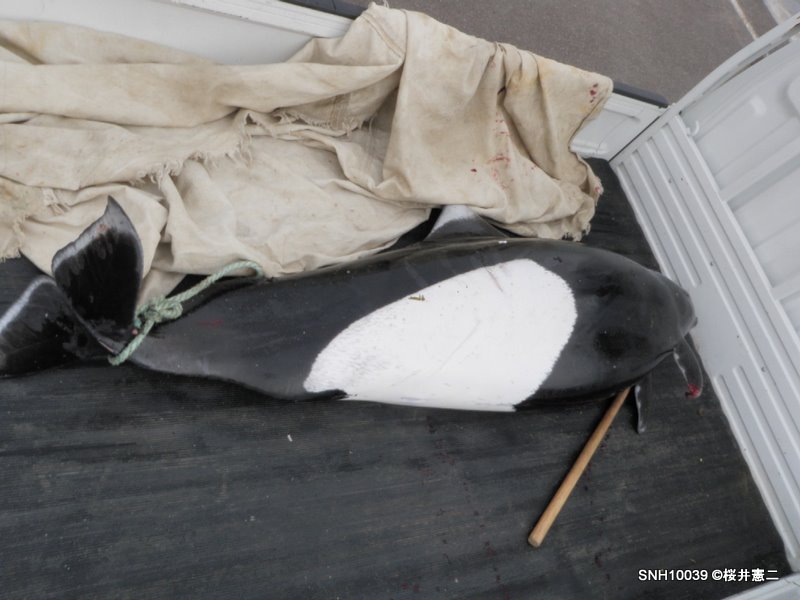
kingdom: Animalia
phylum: Chordata
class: Mammalia
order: Cetacea
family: Phocoenidae
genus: Phocoenoides
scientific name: Phocoenoides dalli
